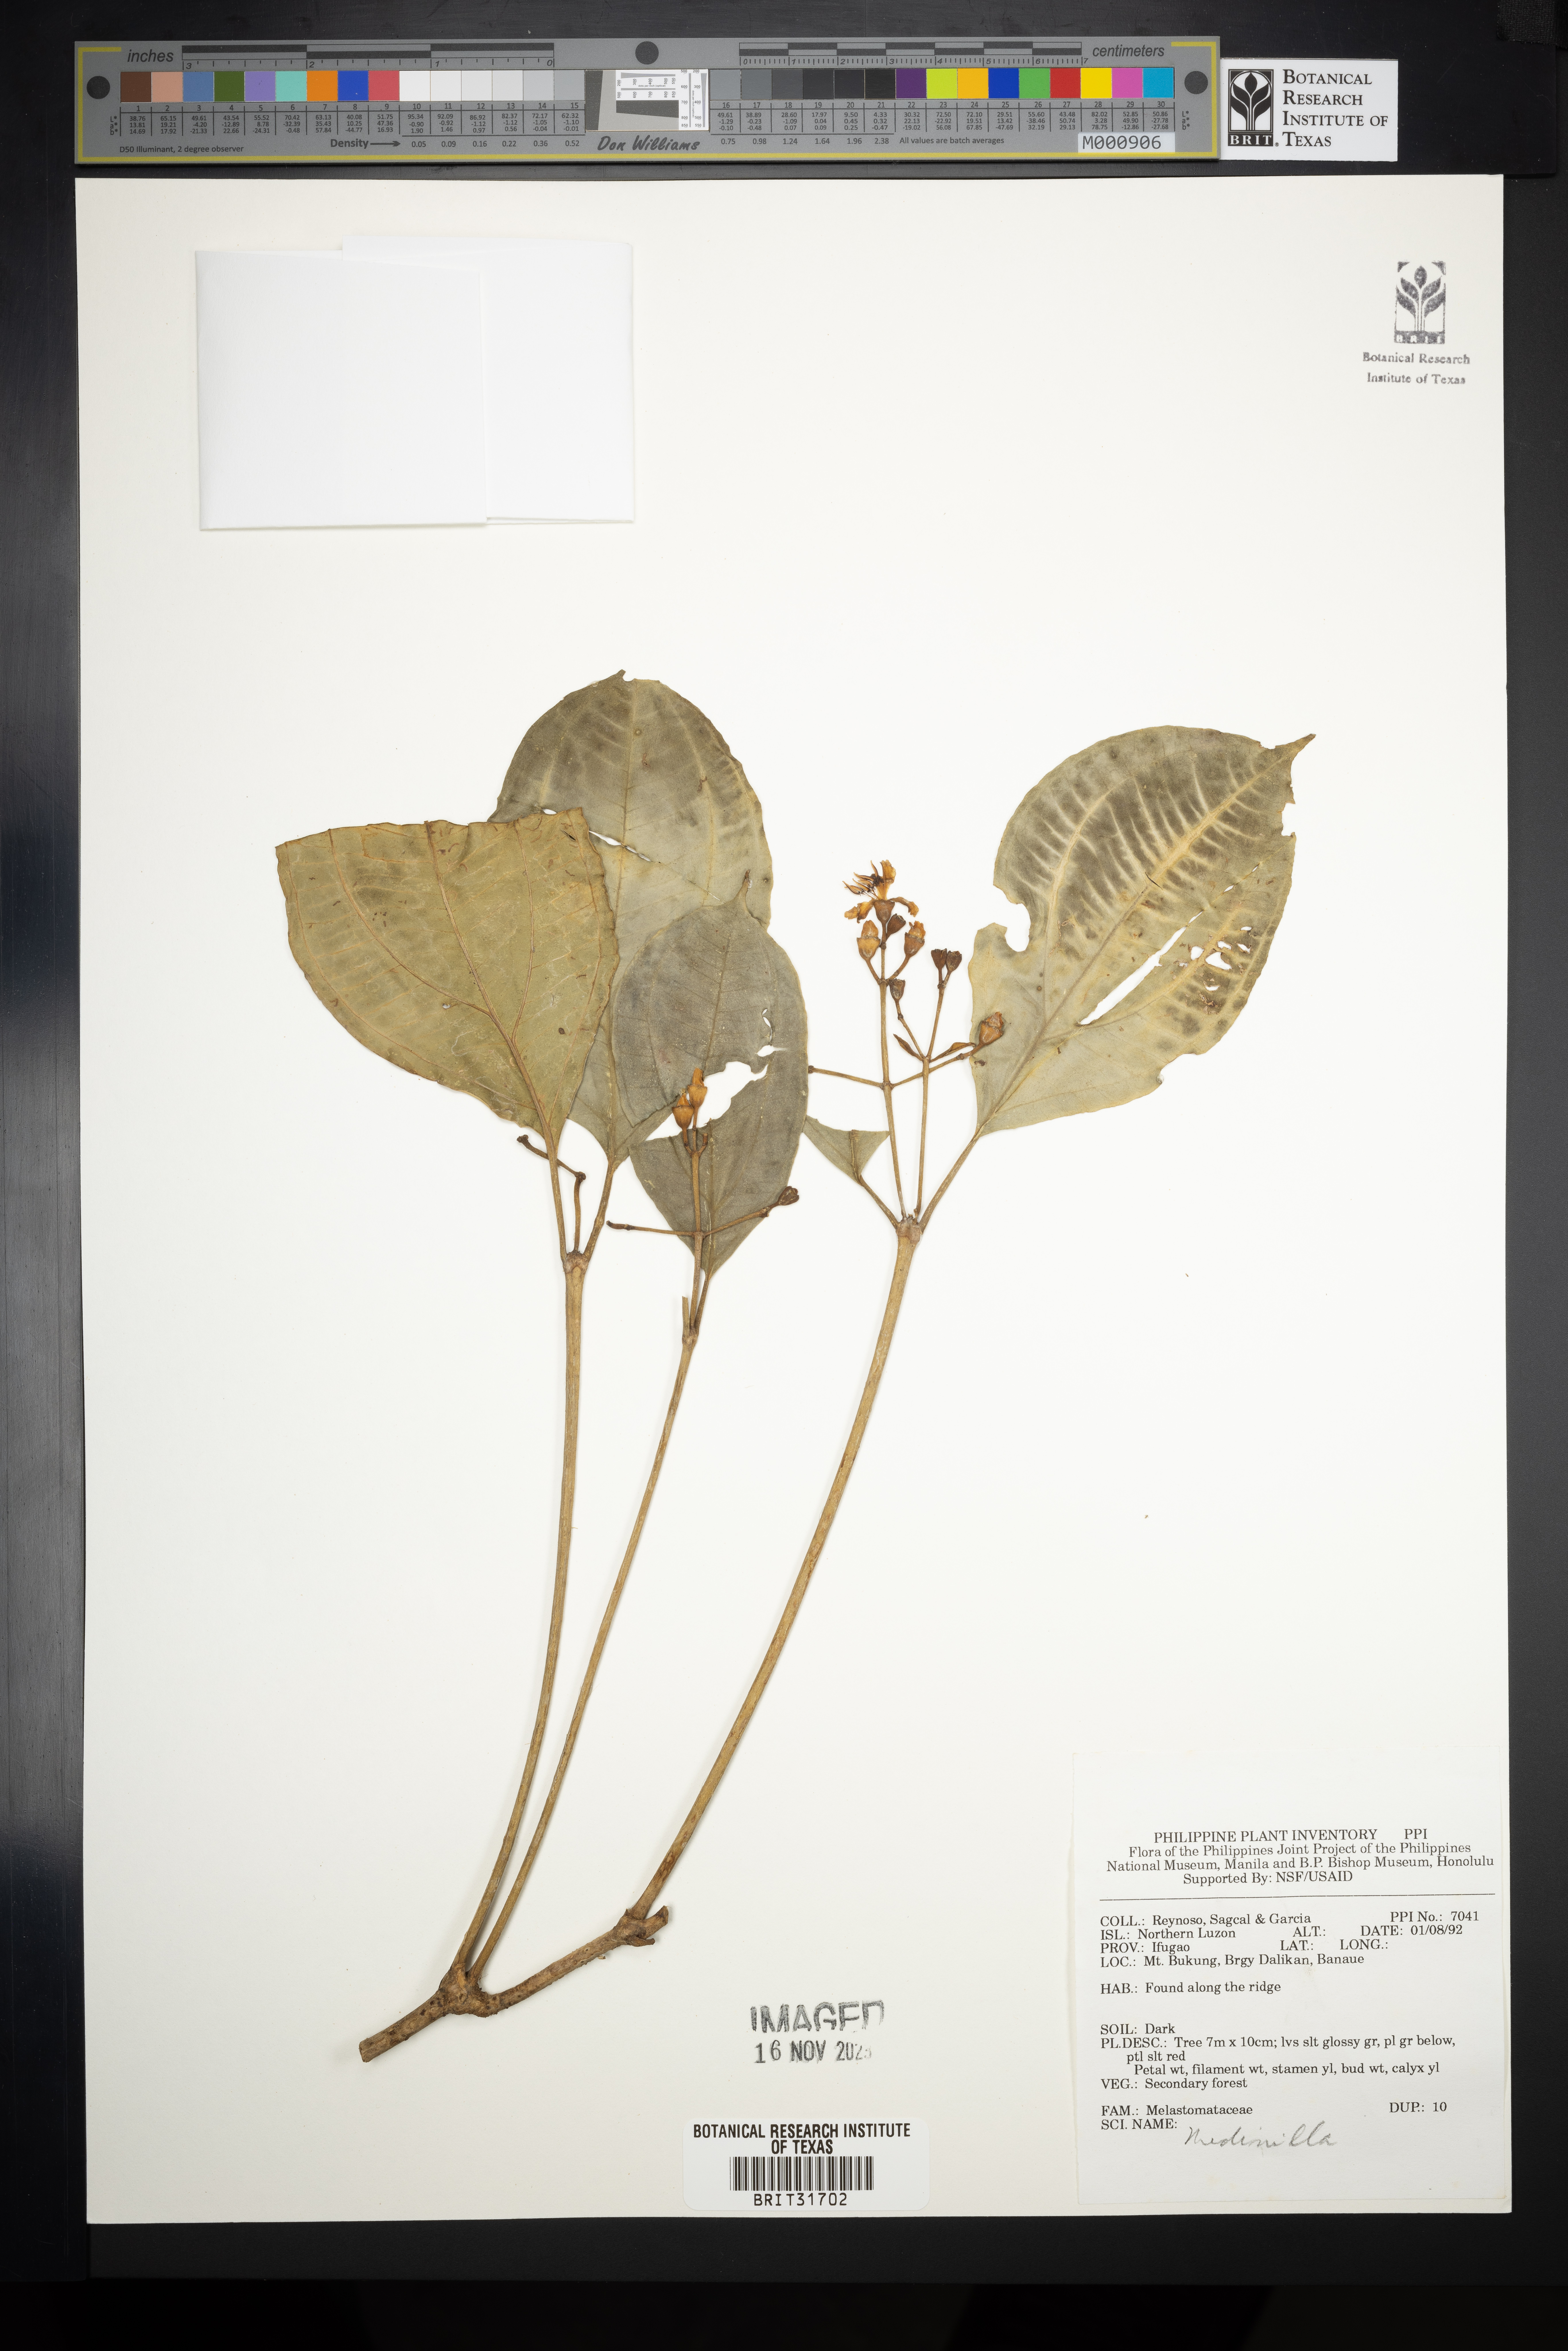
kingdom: Plantae
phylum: Tracheophyta
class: Magnoliopsida
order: Myrtales
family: Melastomataceae
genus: Medinilla
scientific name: Medinilla
